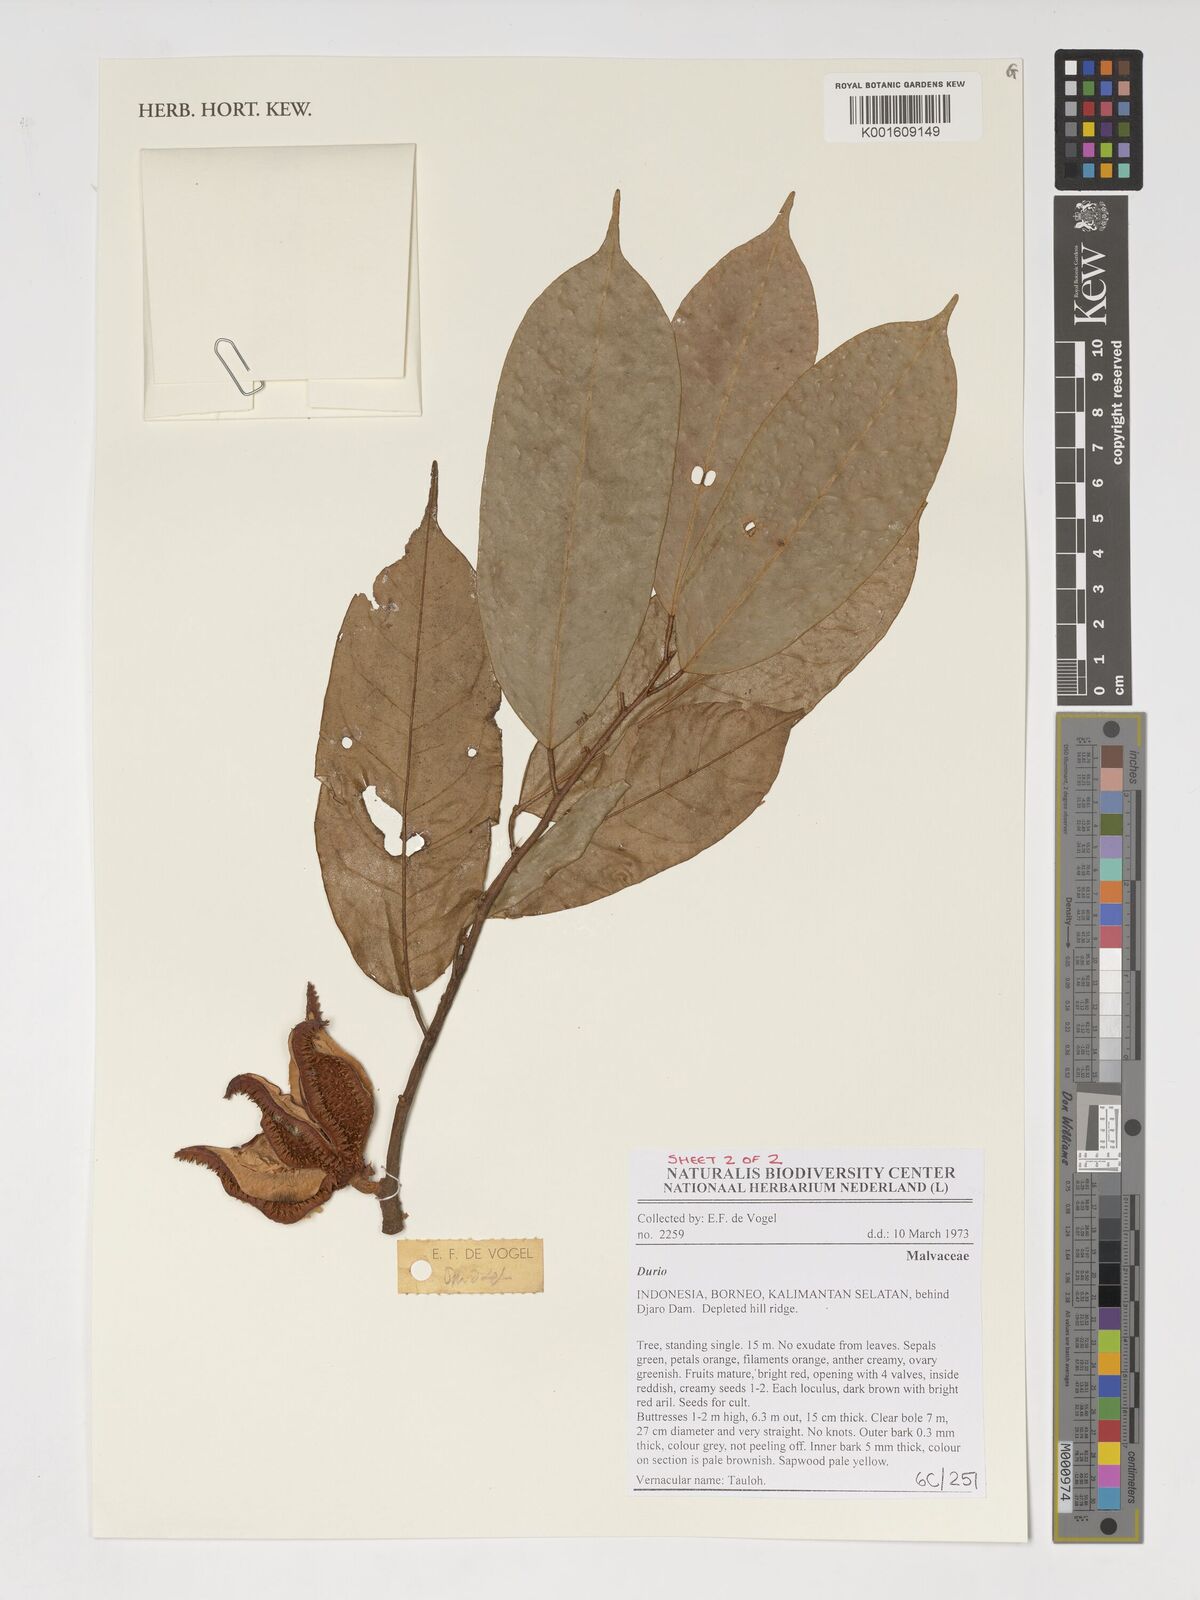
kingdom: Plantae
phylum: Tracheophyta
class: Magnoliopsida
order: Malvales
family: Malvaceae
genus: Durio
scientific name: Durio
